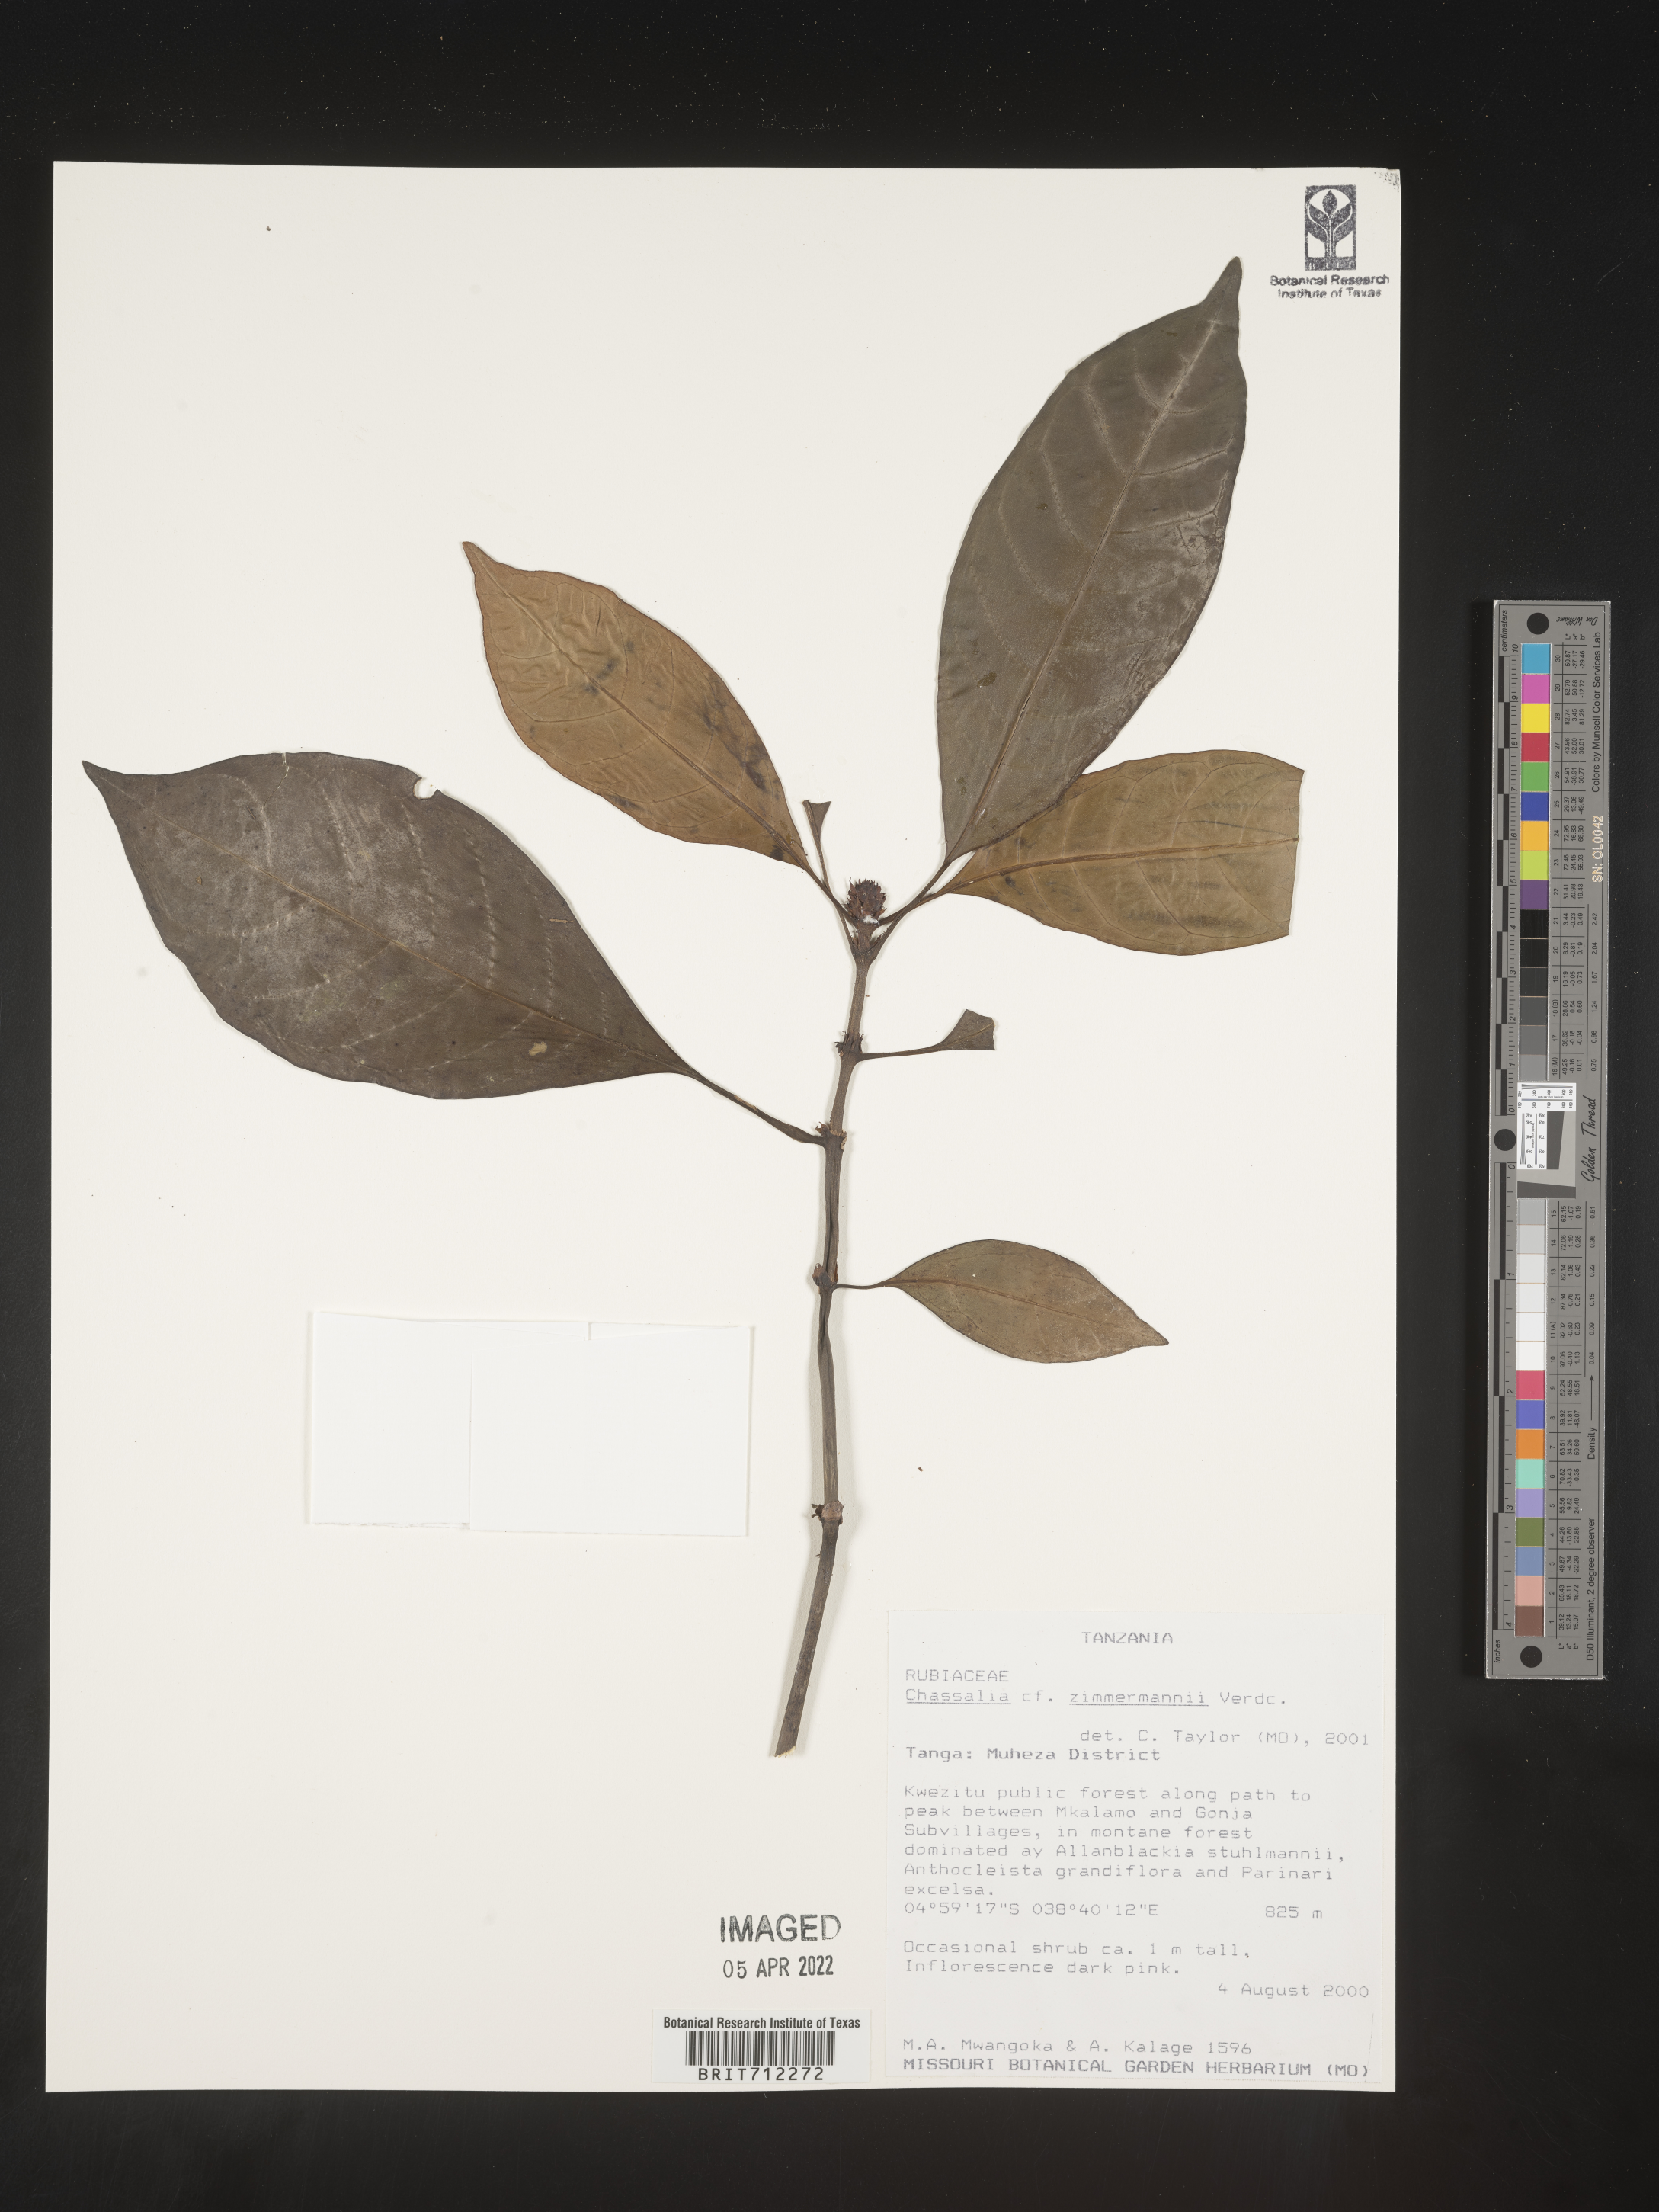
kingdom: Plantae
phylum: Tracheophyta
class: Magnoliopsida
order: Gentianales
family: Rubiaceae
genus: Chassalia
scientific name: Chassalia
